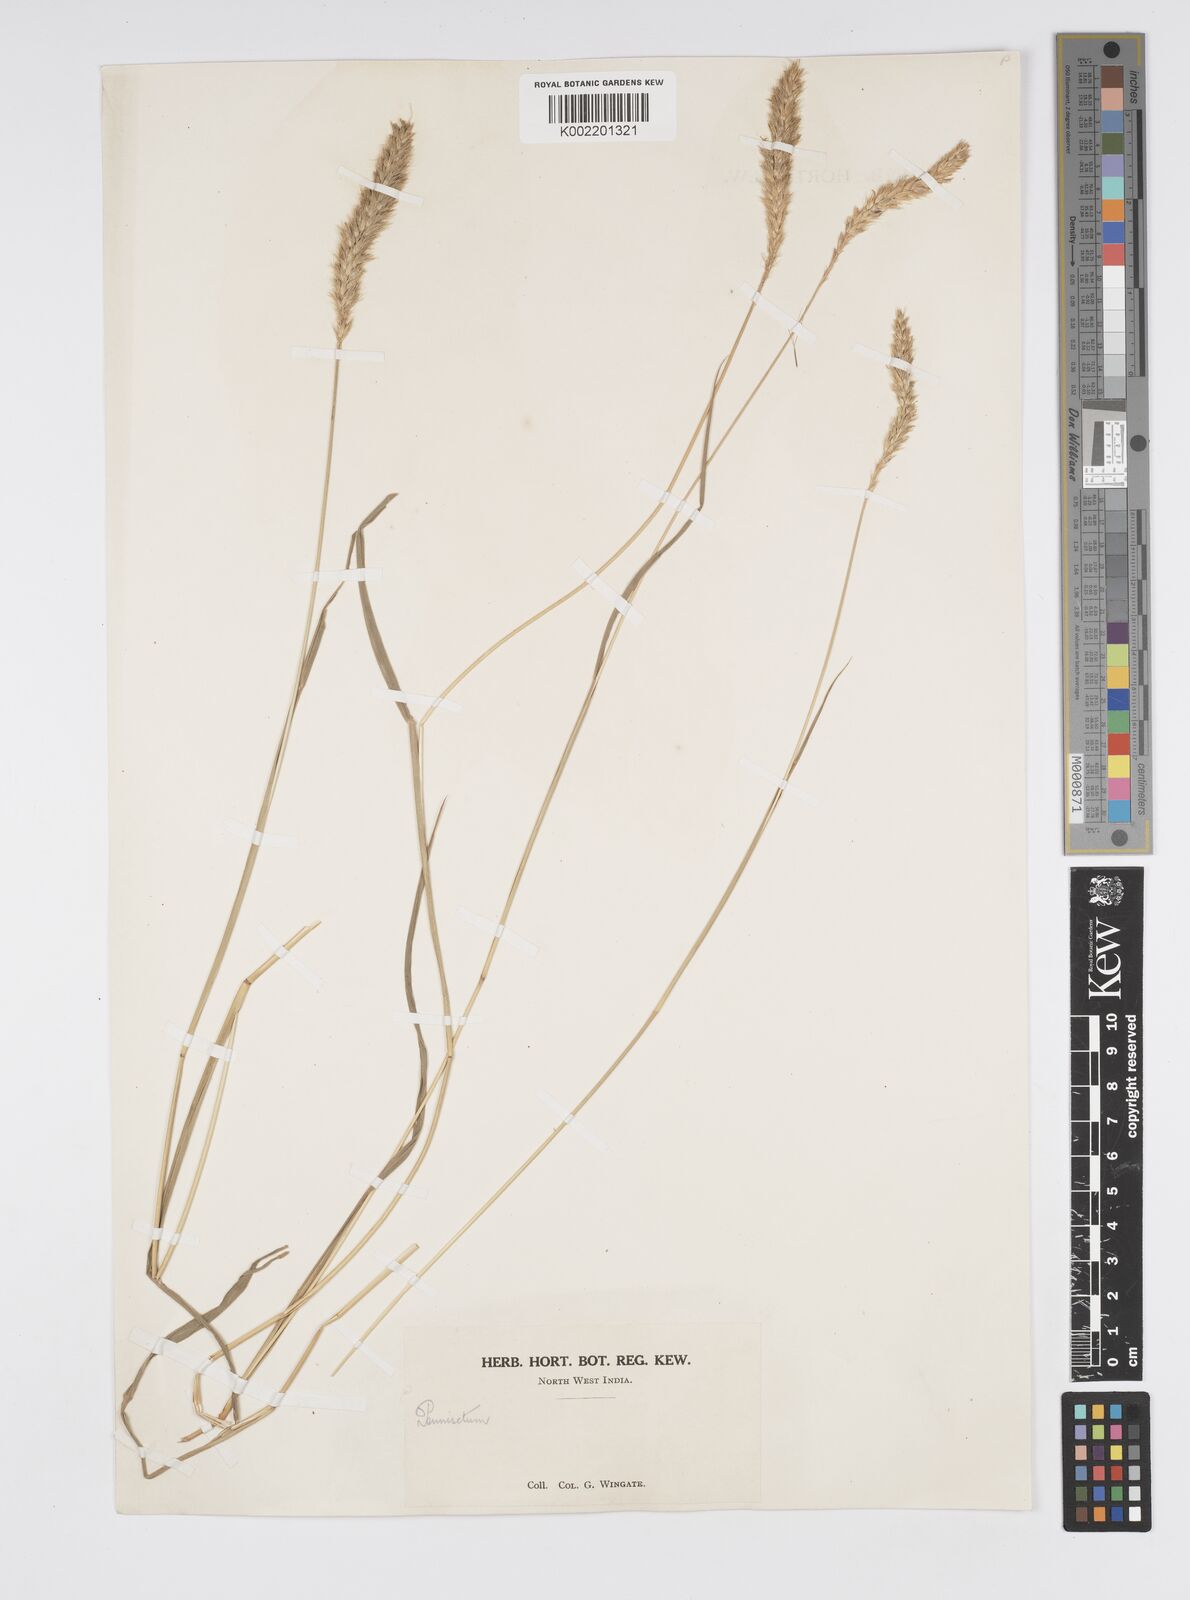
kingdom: Plantae
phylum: Tracheophyta
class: Liliopsida
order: Poales
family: Poaceae
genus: Cenchrus
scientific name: Cenchrus lanatus
